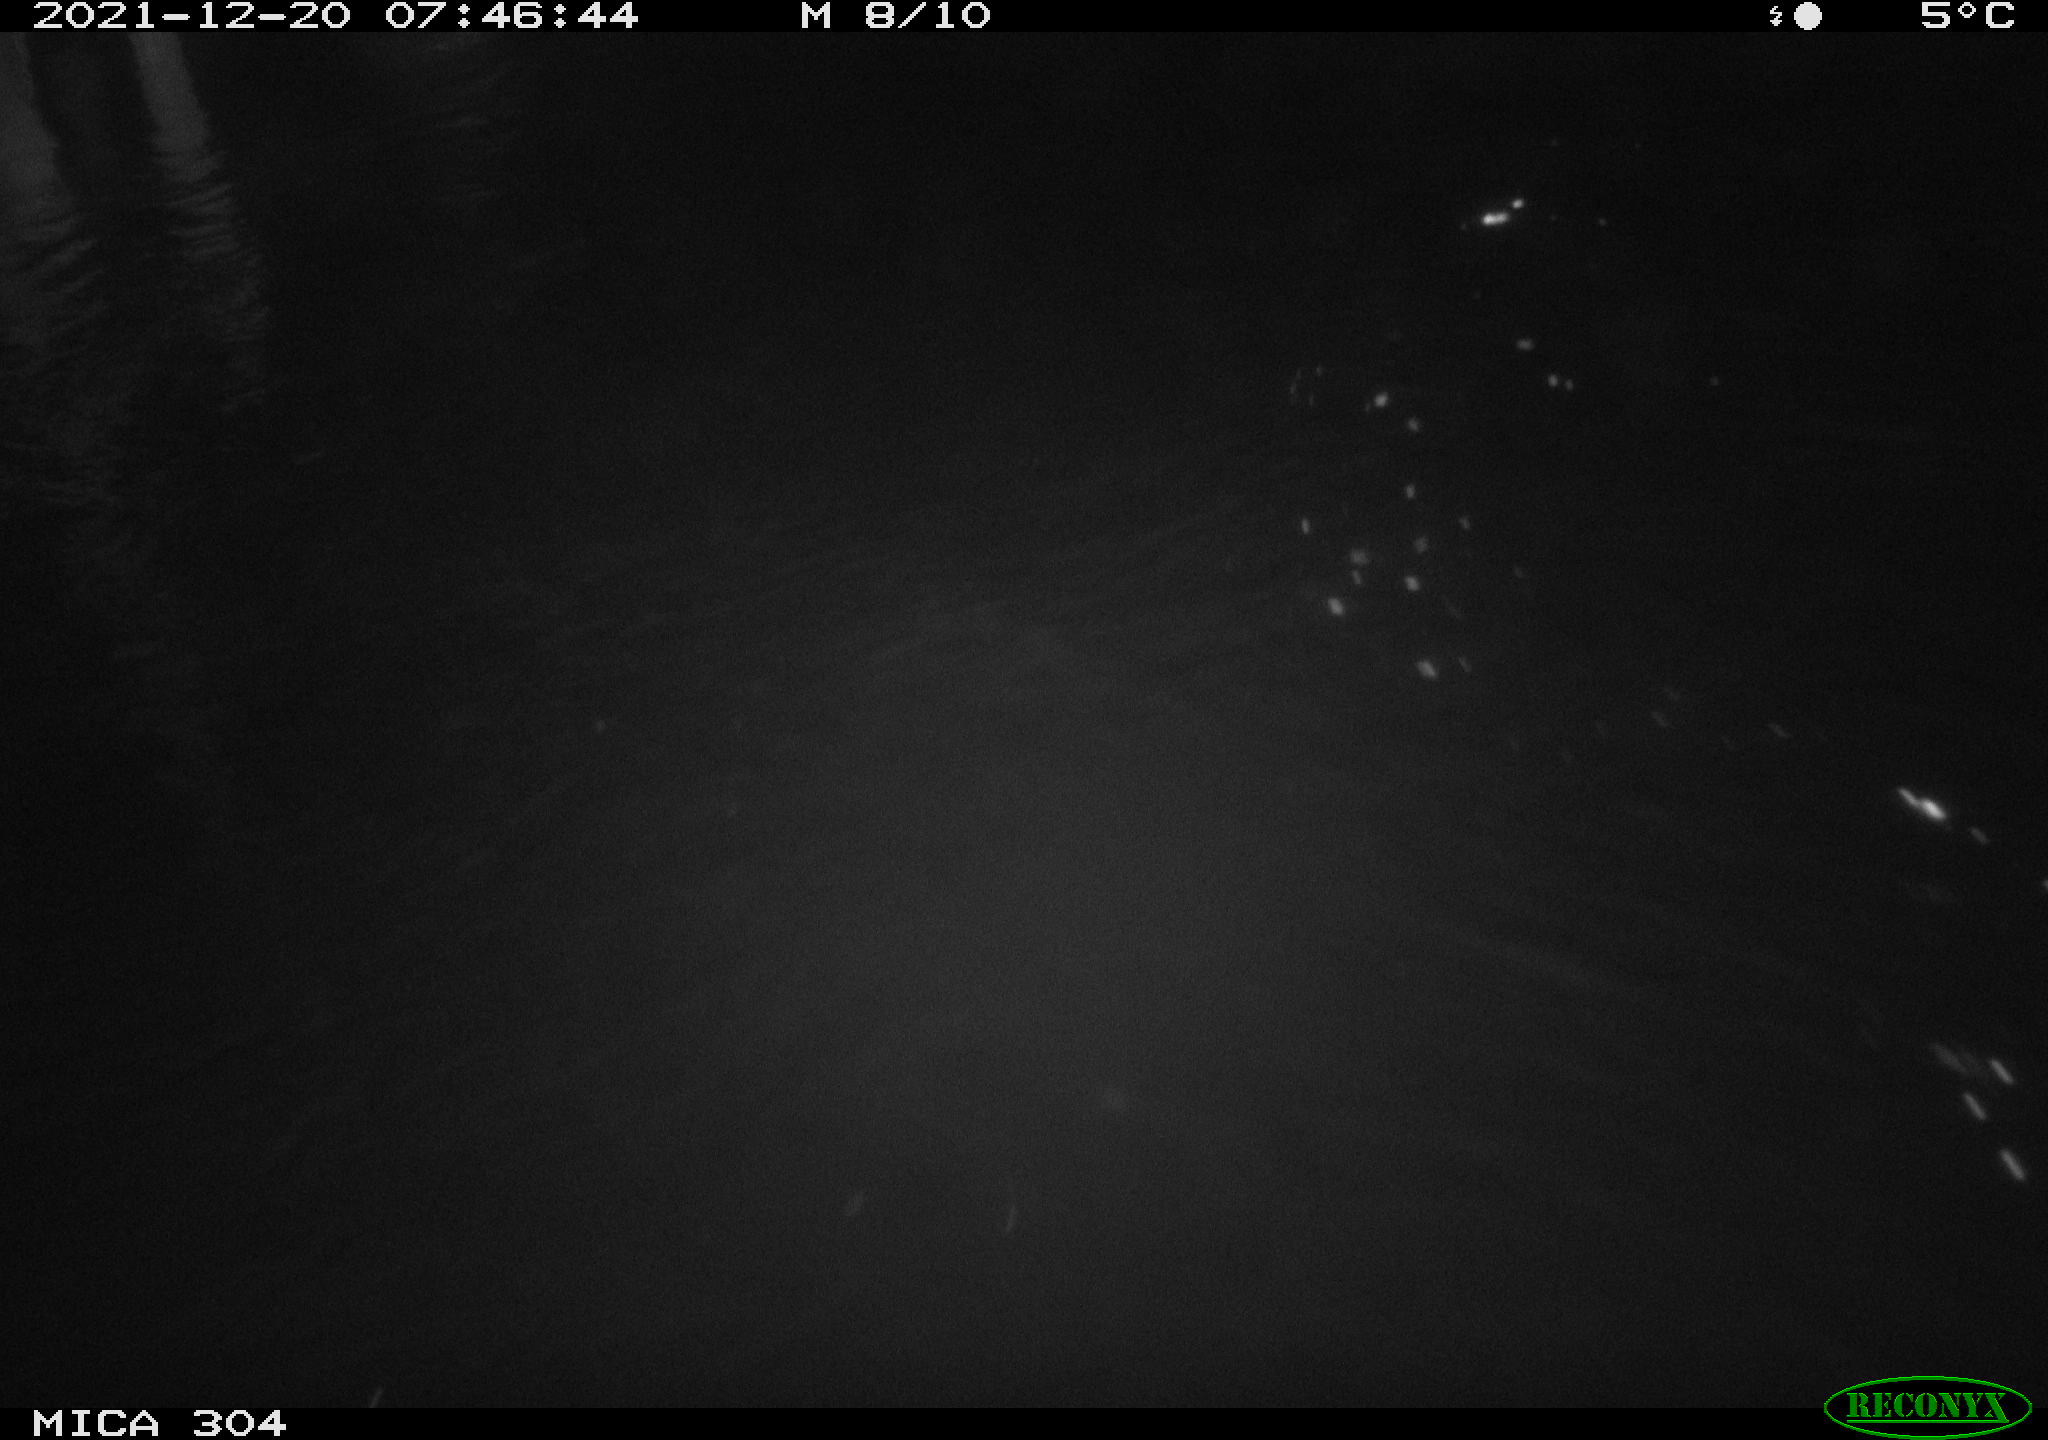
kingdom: Animalia
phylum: Chordata
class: Aves
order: Gruiformes
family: Rallidae
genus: Fulica
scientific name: Fulica atra
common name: Eurasian coot
